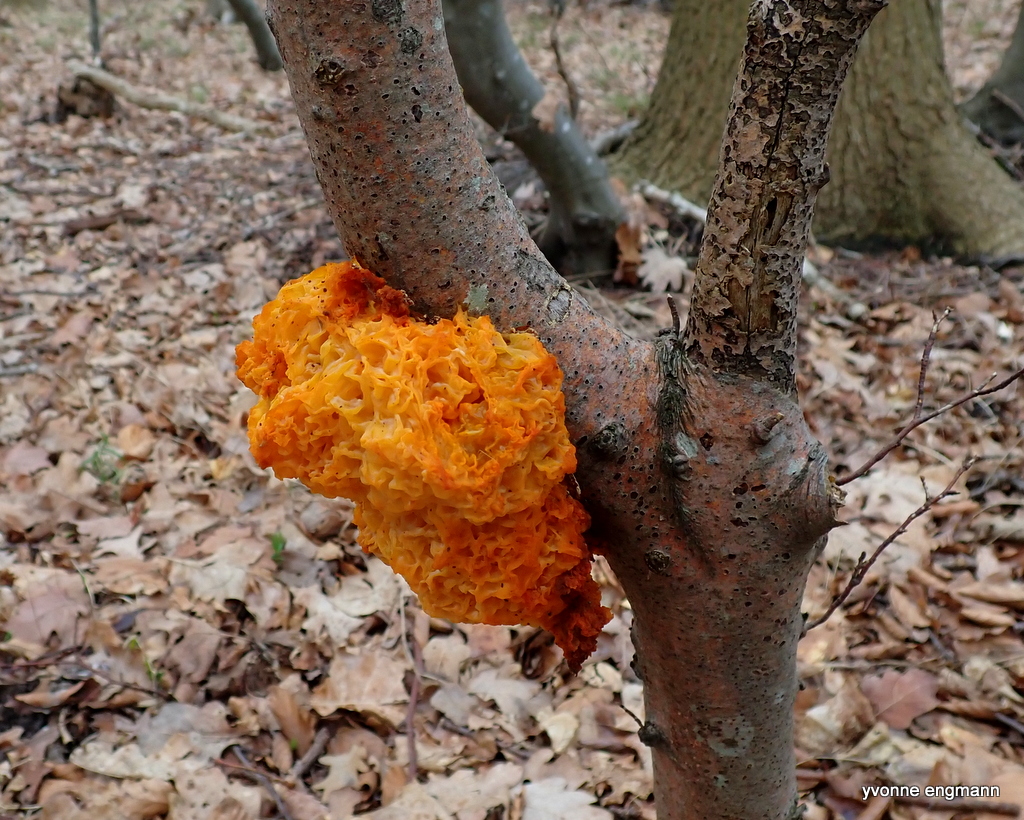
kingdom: Fungi
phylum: Basidiomycota
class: Tremellomycetes
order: Tremellales
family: Tremellaceae
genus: Tremella
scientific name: Tremella mesenterica
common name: gul bævresvamp
